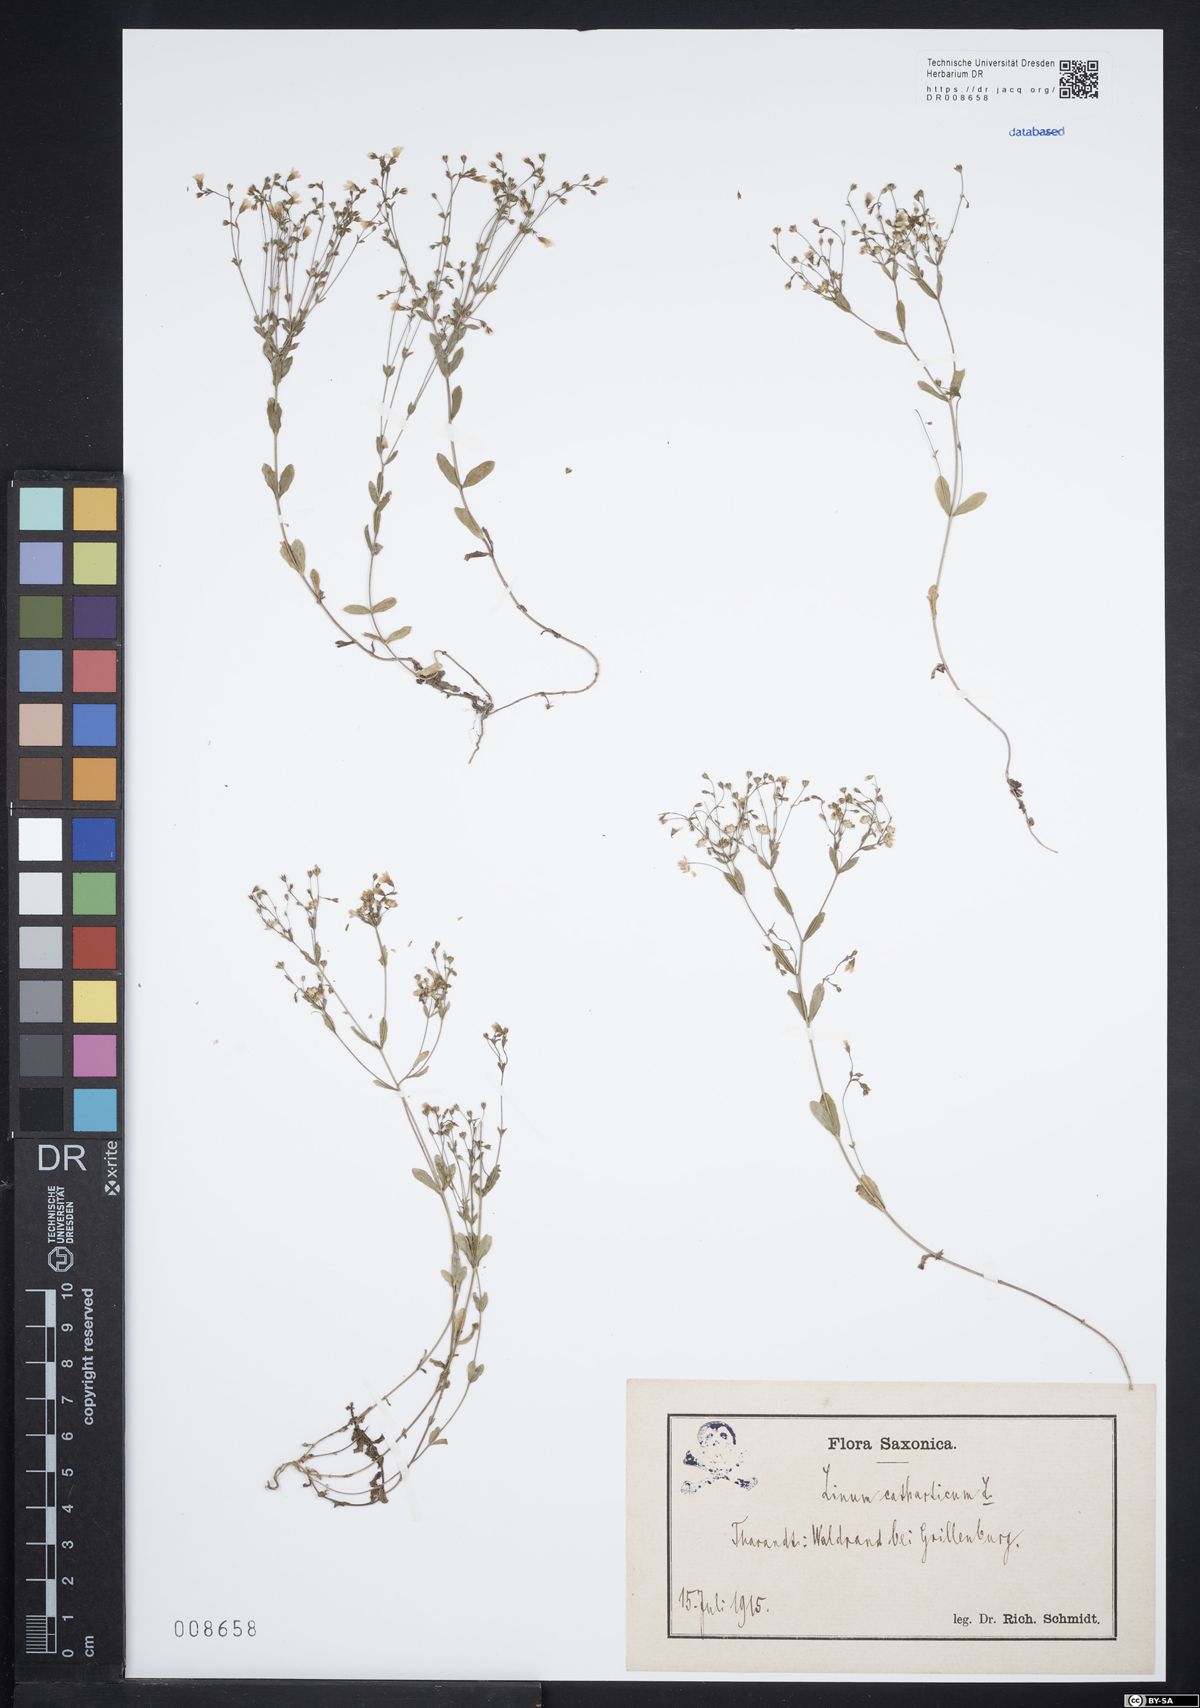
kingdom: Plantae
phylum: Tracheophyta
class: Magnoliopsida
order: Malpighiales
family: Linaceae
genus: Linum
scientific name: Linum catharticum
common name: Fairy flax
